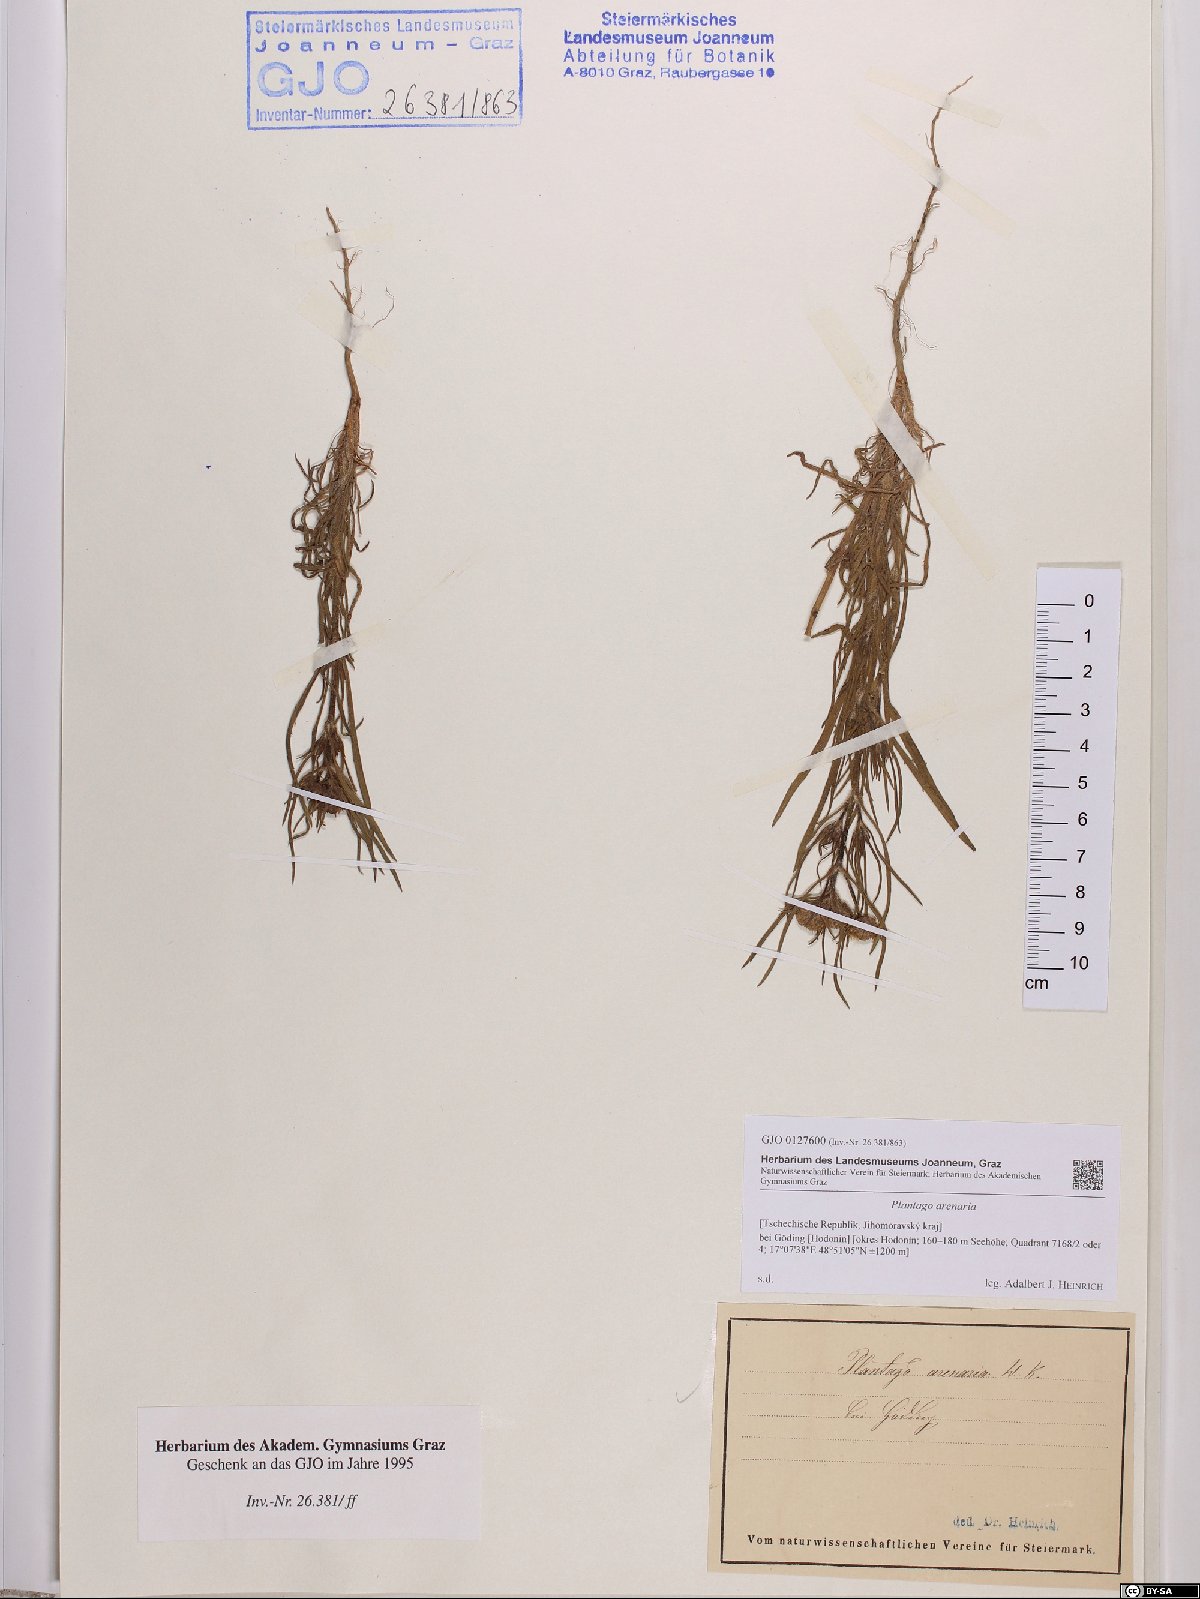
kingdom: Plantae
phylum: Tracheophyta
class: Magnoliopsida
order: Lamiales
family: Plantaginaceae
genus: Plantago
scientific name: Plantago arenaria
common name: Branched plantain
